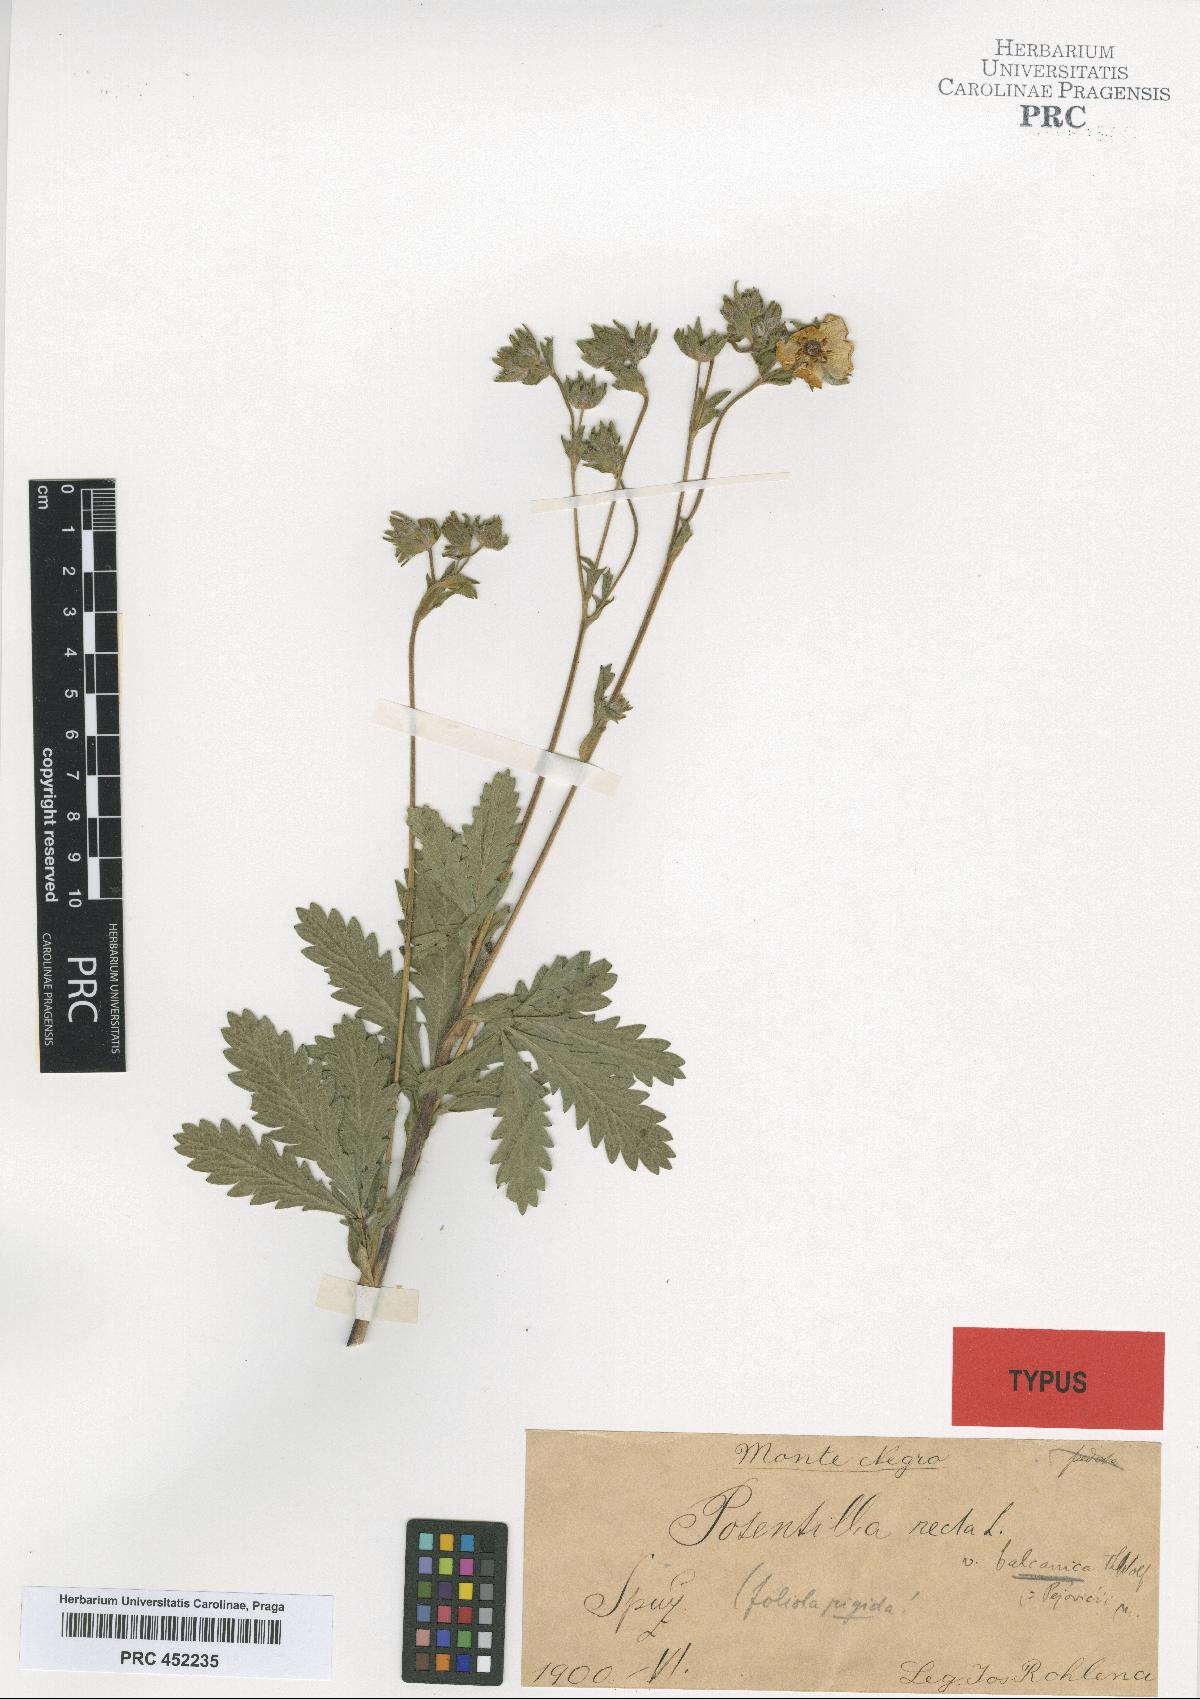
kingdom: Plantae
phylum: Tracheophyta
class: Magnoliopsida
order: Rosales
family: Rosaceae
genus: Potentilla
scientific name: Potentilla recta
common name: Sulphur cinquefoil
